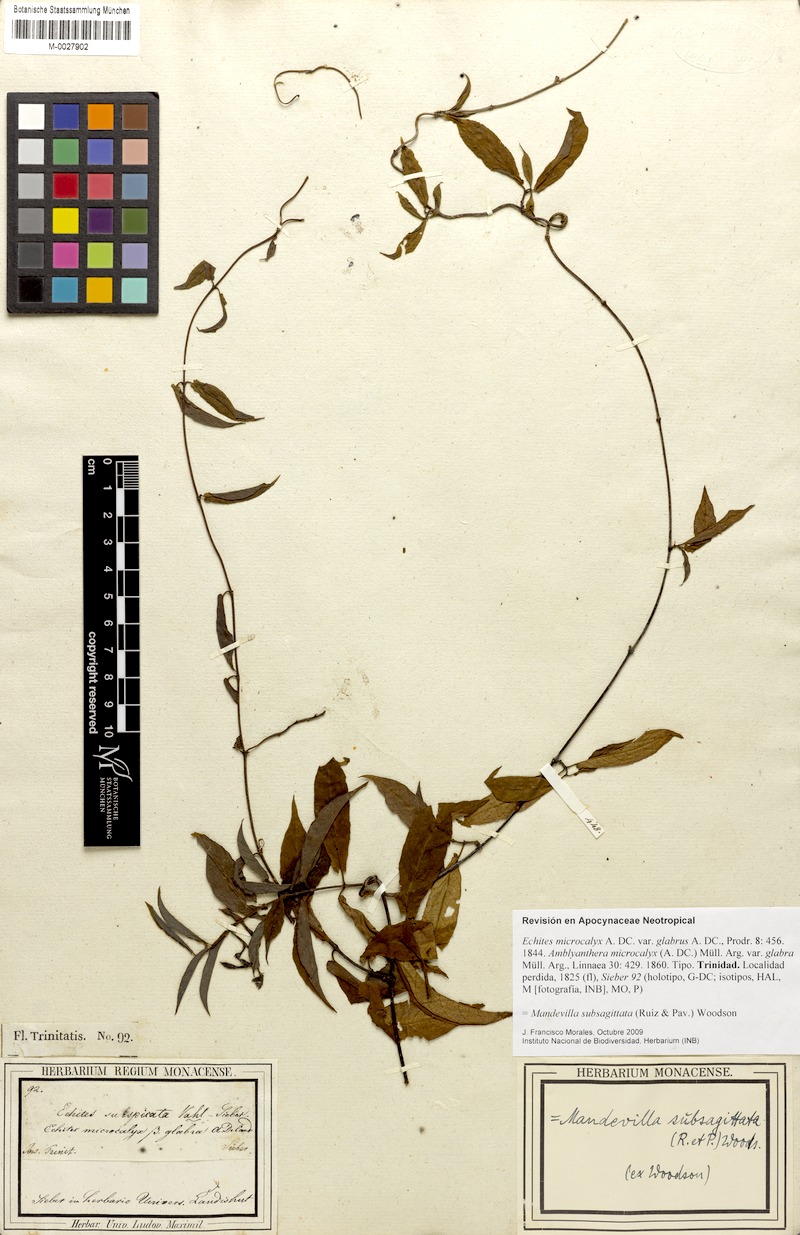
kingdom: Plantae
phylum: Tracheophyta
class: Magnoliopsida
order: Gentianales
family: Apocynaceae
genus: Mandevilla
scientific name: Mandevilla subsagittata
